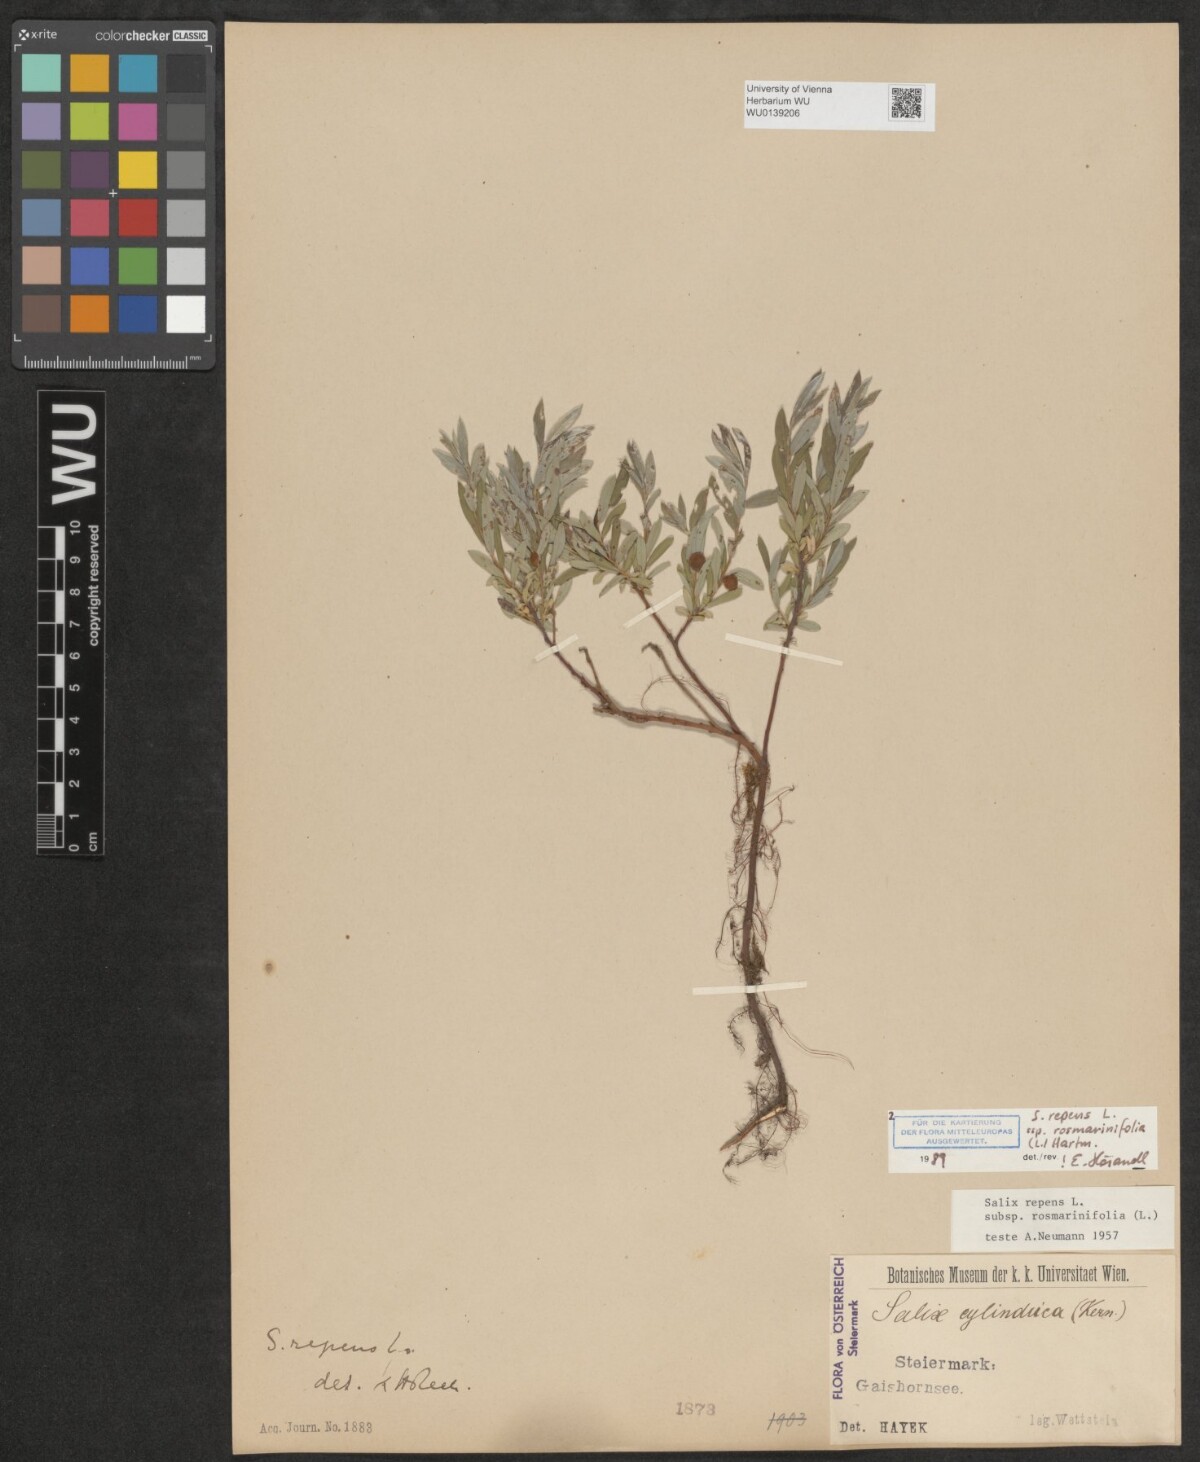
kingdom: Plantae
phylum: Tracheophyta
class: Magnoliopsida
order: Malpighiales
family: Salicaceae
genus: Salix
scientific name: Salix repens
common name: Creeping willow
